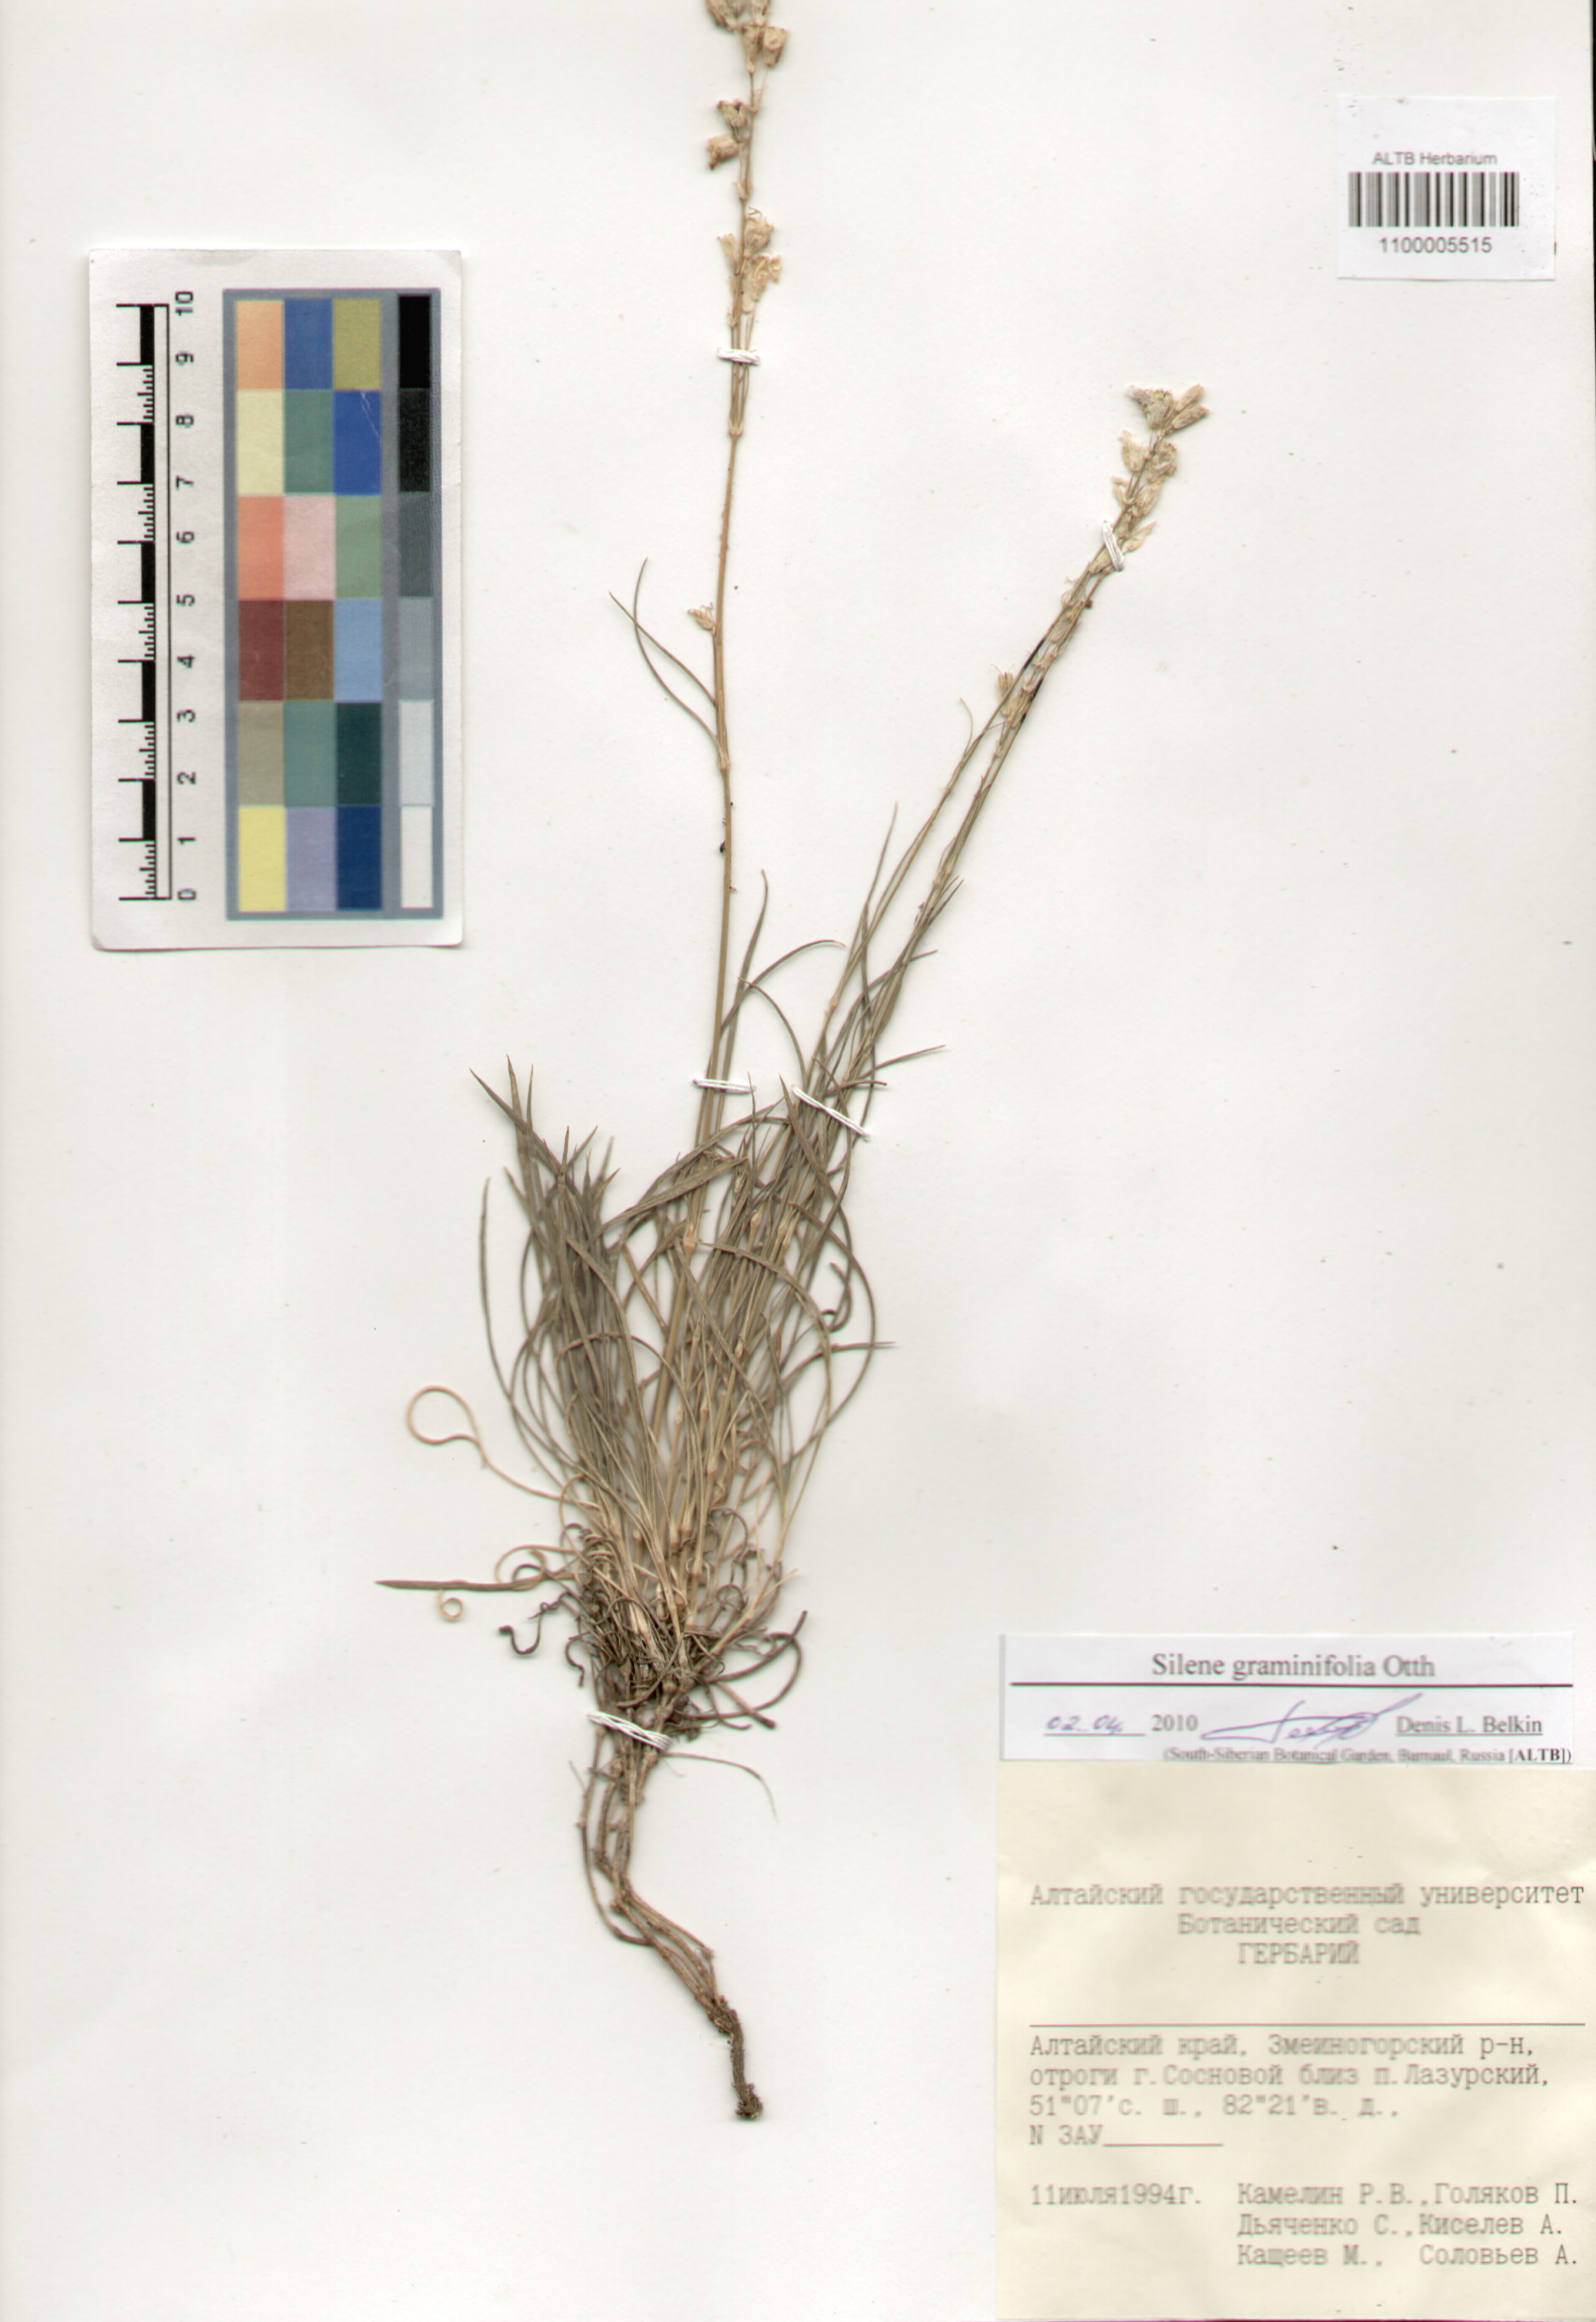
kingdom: Plantae
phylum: Tracheophyta
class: Magnoliopsida
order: Caryophyllales
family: Caryophyllaceae
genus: Silene
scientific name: Silene graminifolia
